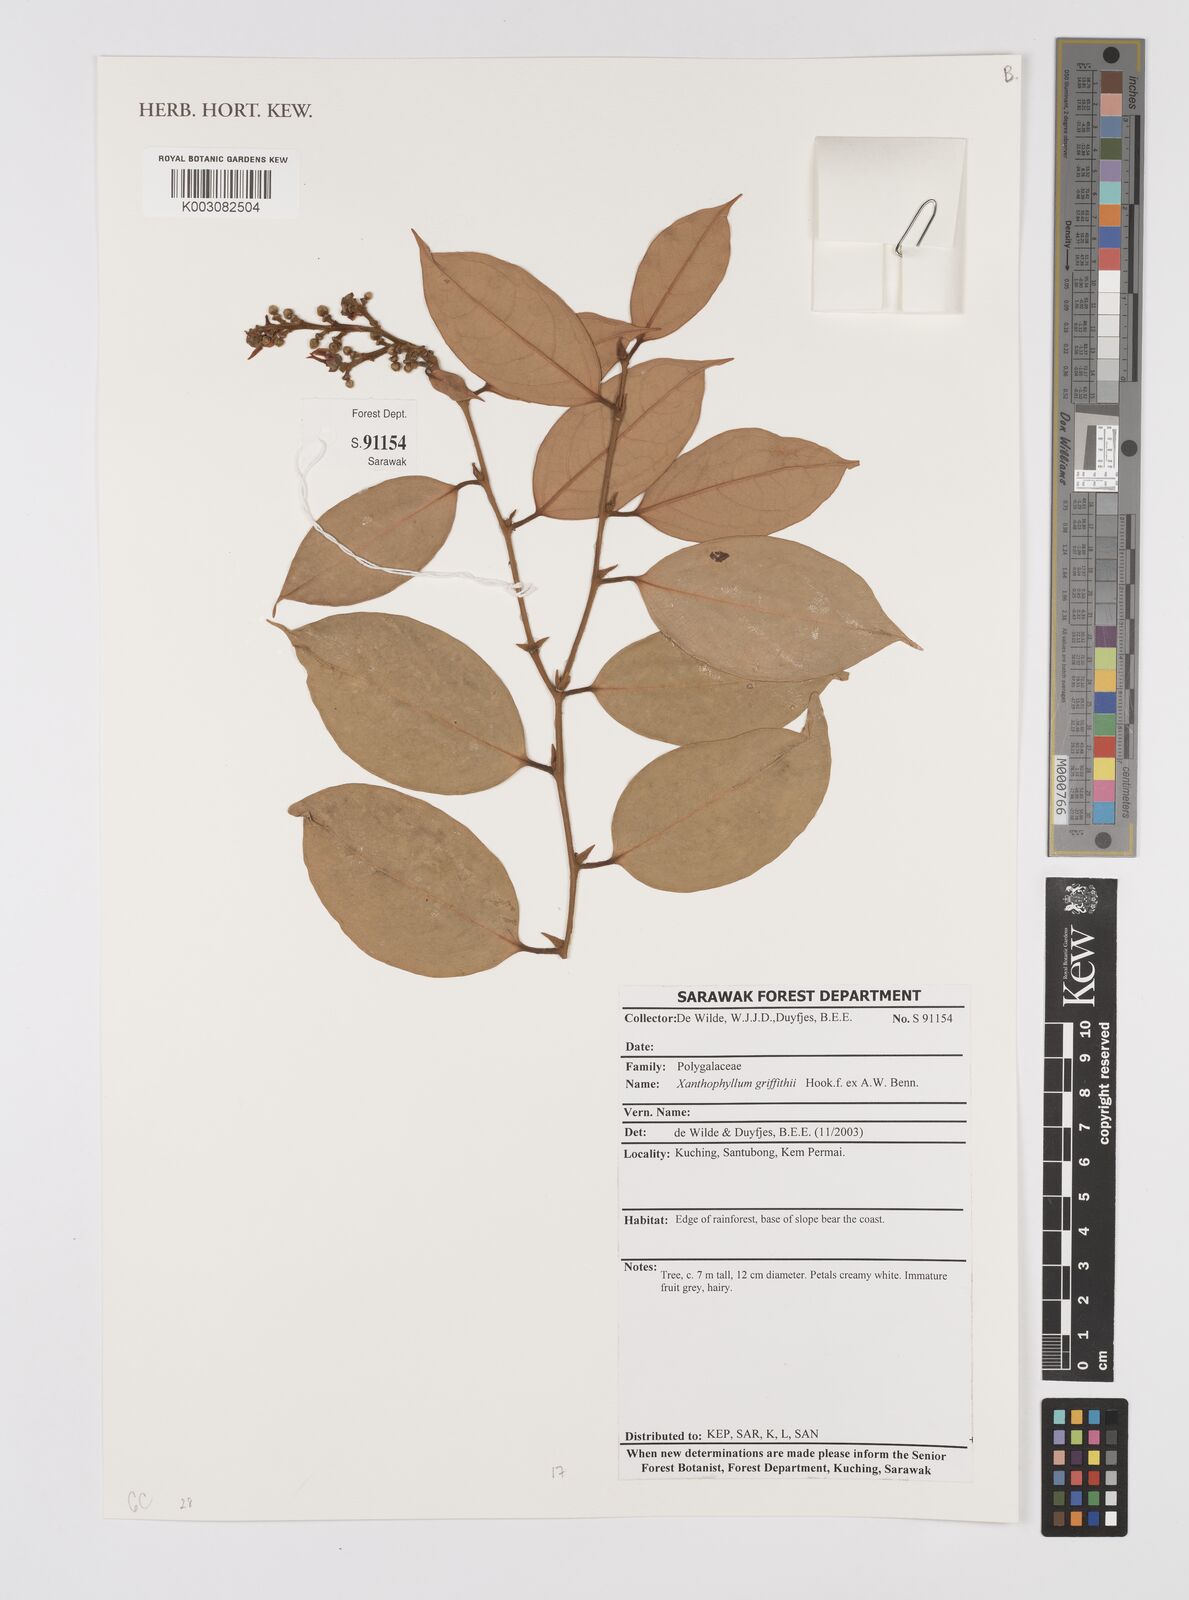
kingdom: Plantae
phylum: Tracheophyta
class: Magnoliopsida
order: Fabales
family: Polygalaceae
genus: Xanthophyllum
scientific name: Xanthophyllum griffithii
